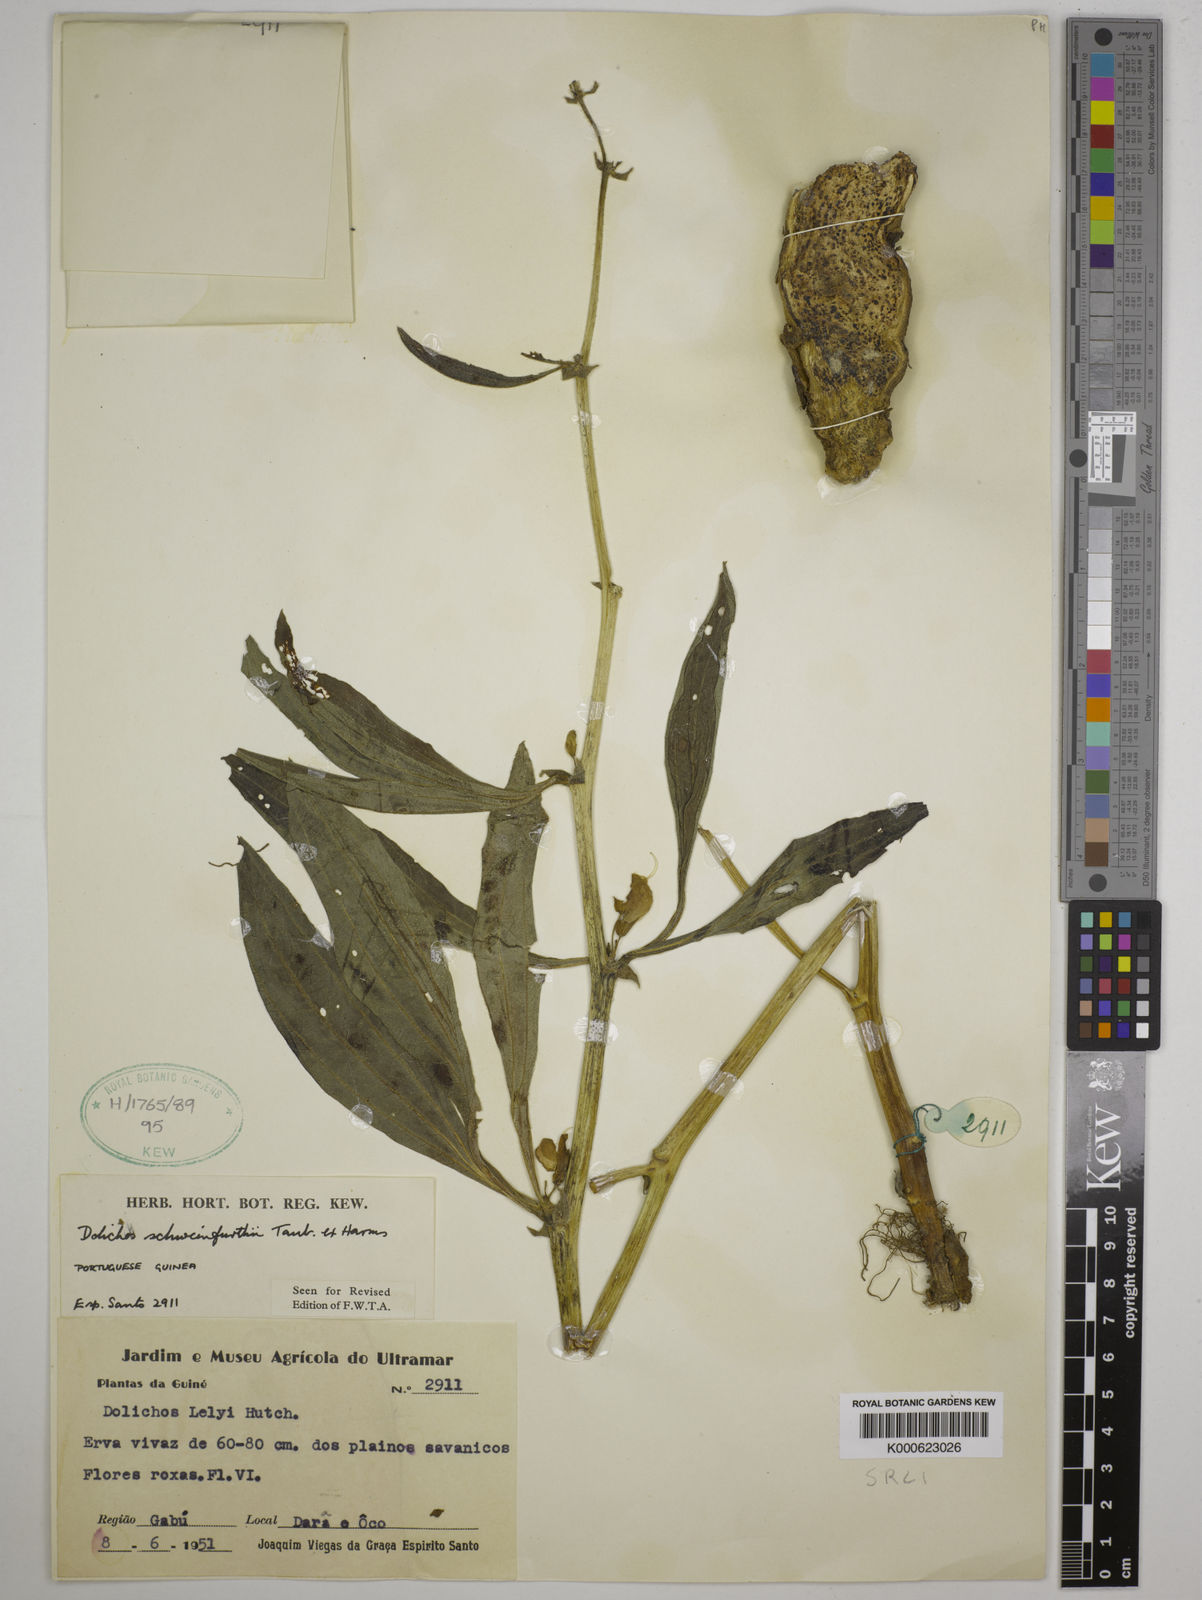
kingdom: Plantae
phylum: Tracheophyta
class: Magnoliopsida
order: Fabales
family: Fabaceae
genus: Dolichos
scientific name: Dolichos
